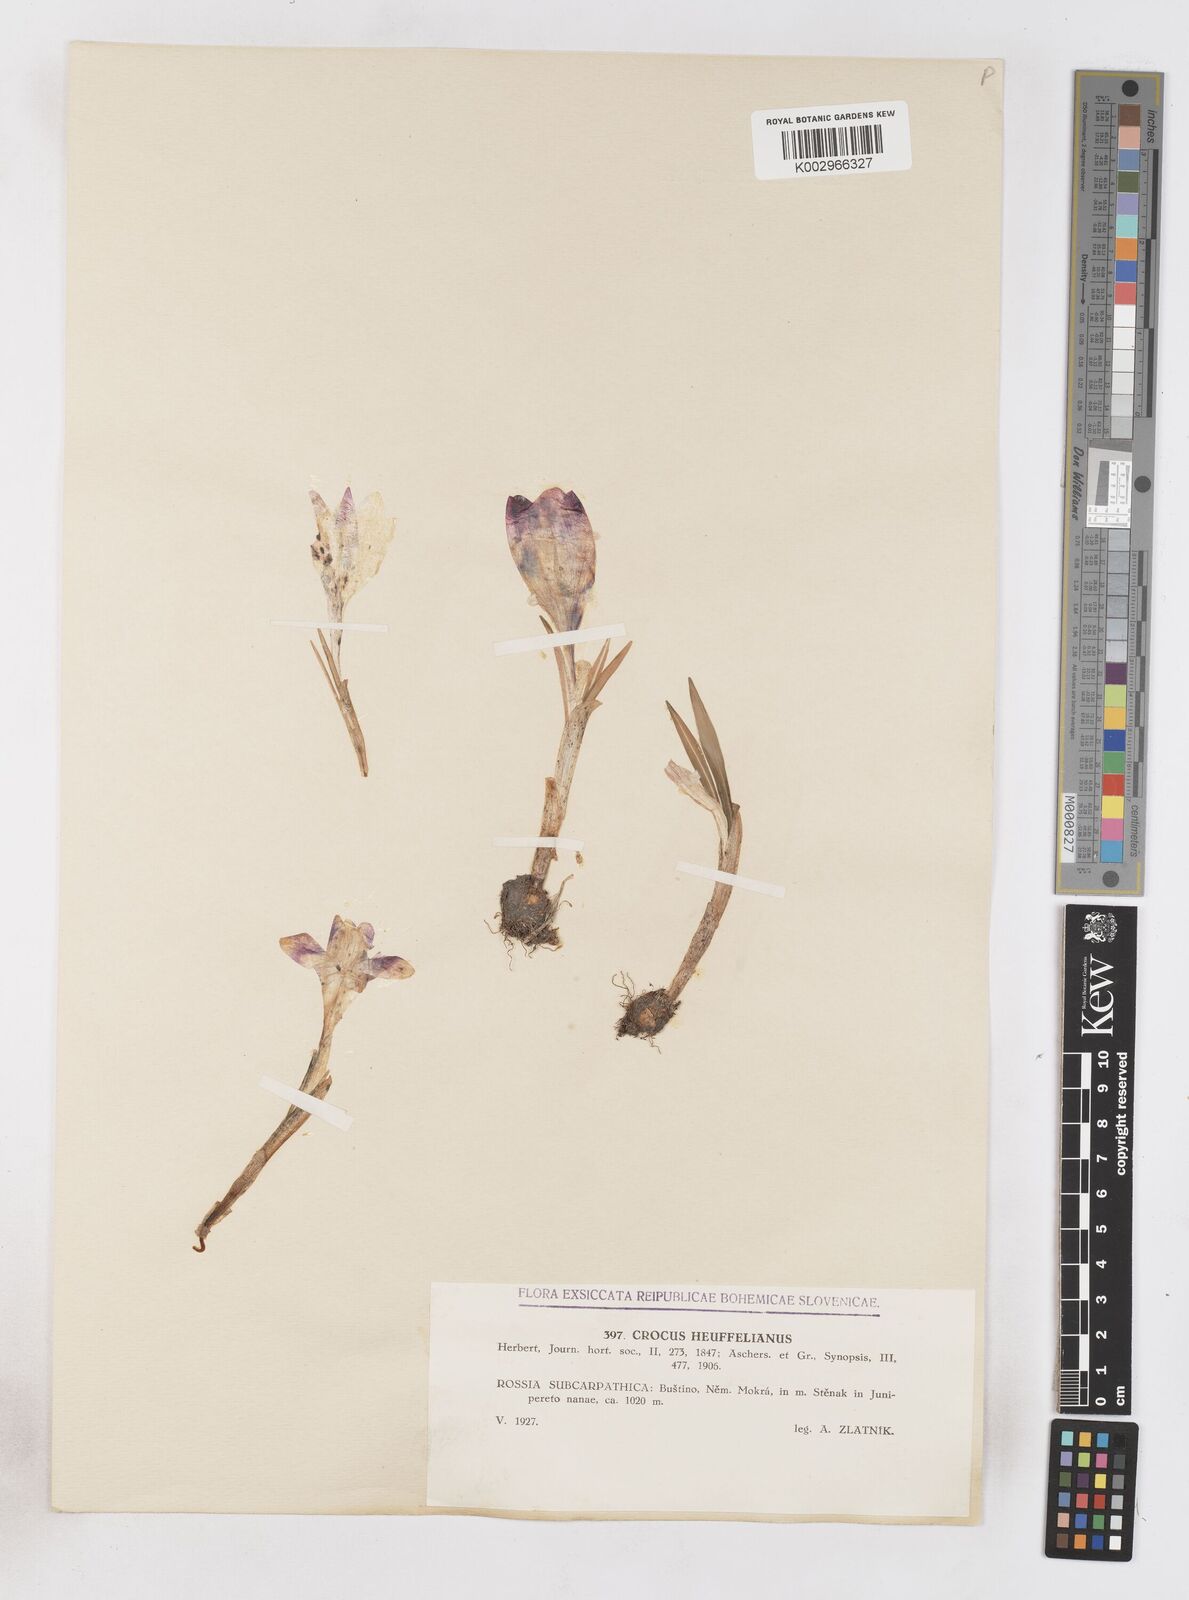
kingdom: Plantae
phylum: Tracheophyta
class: Liliopsida
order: Asparagales
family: Iridaceae
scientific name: Iridaceae
